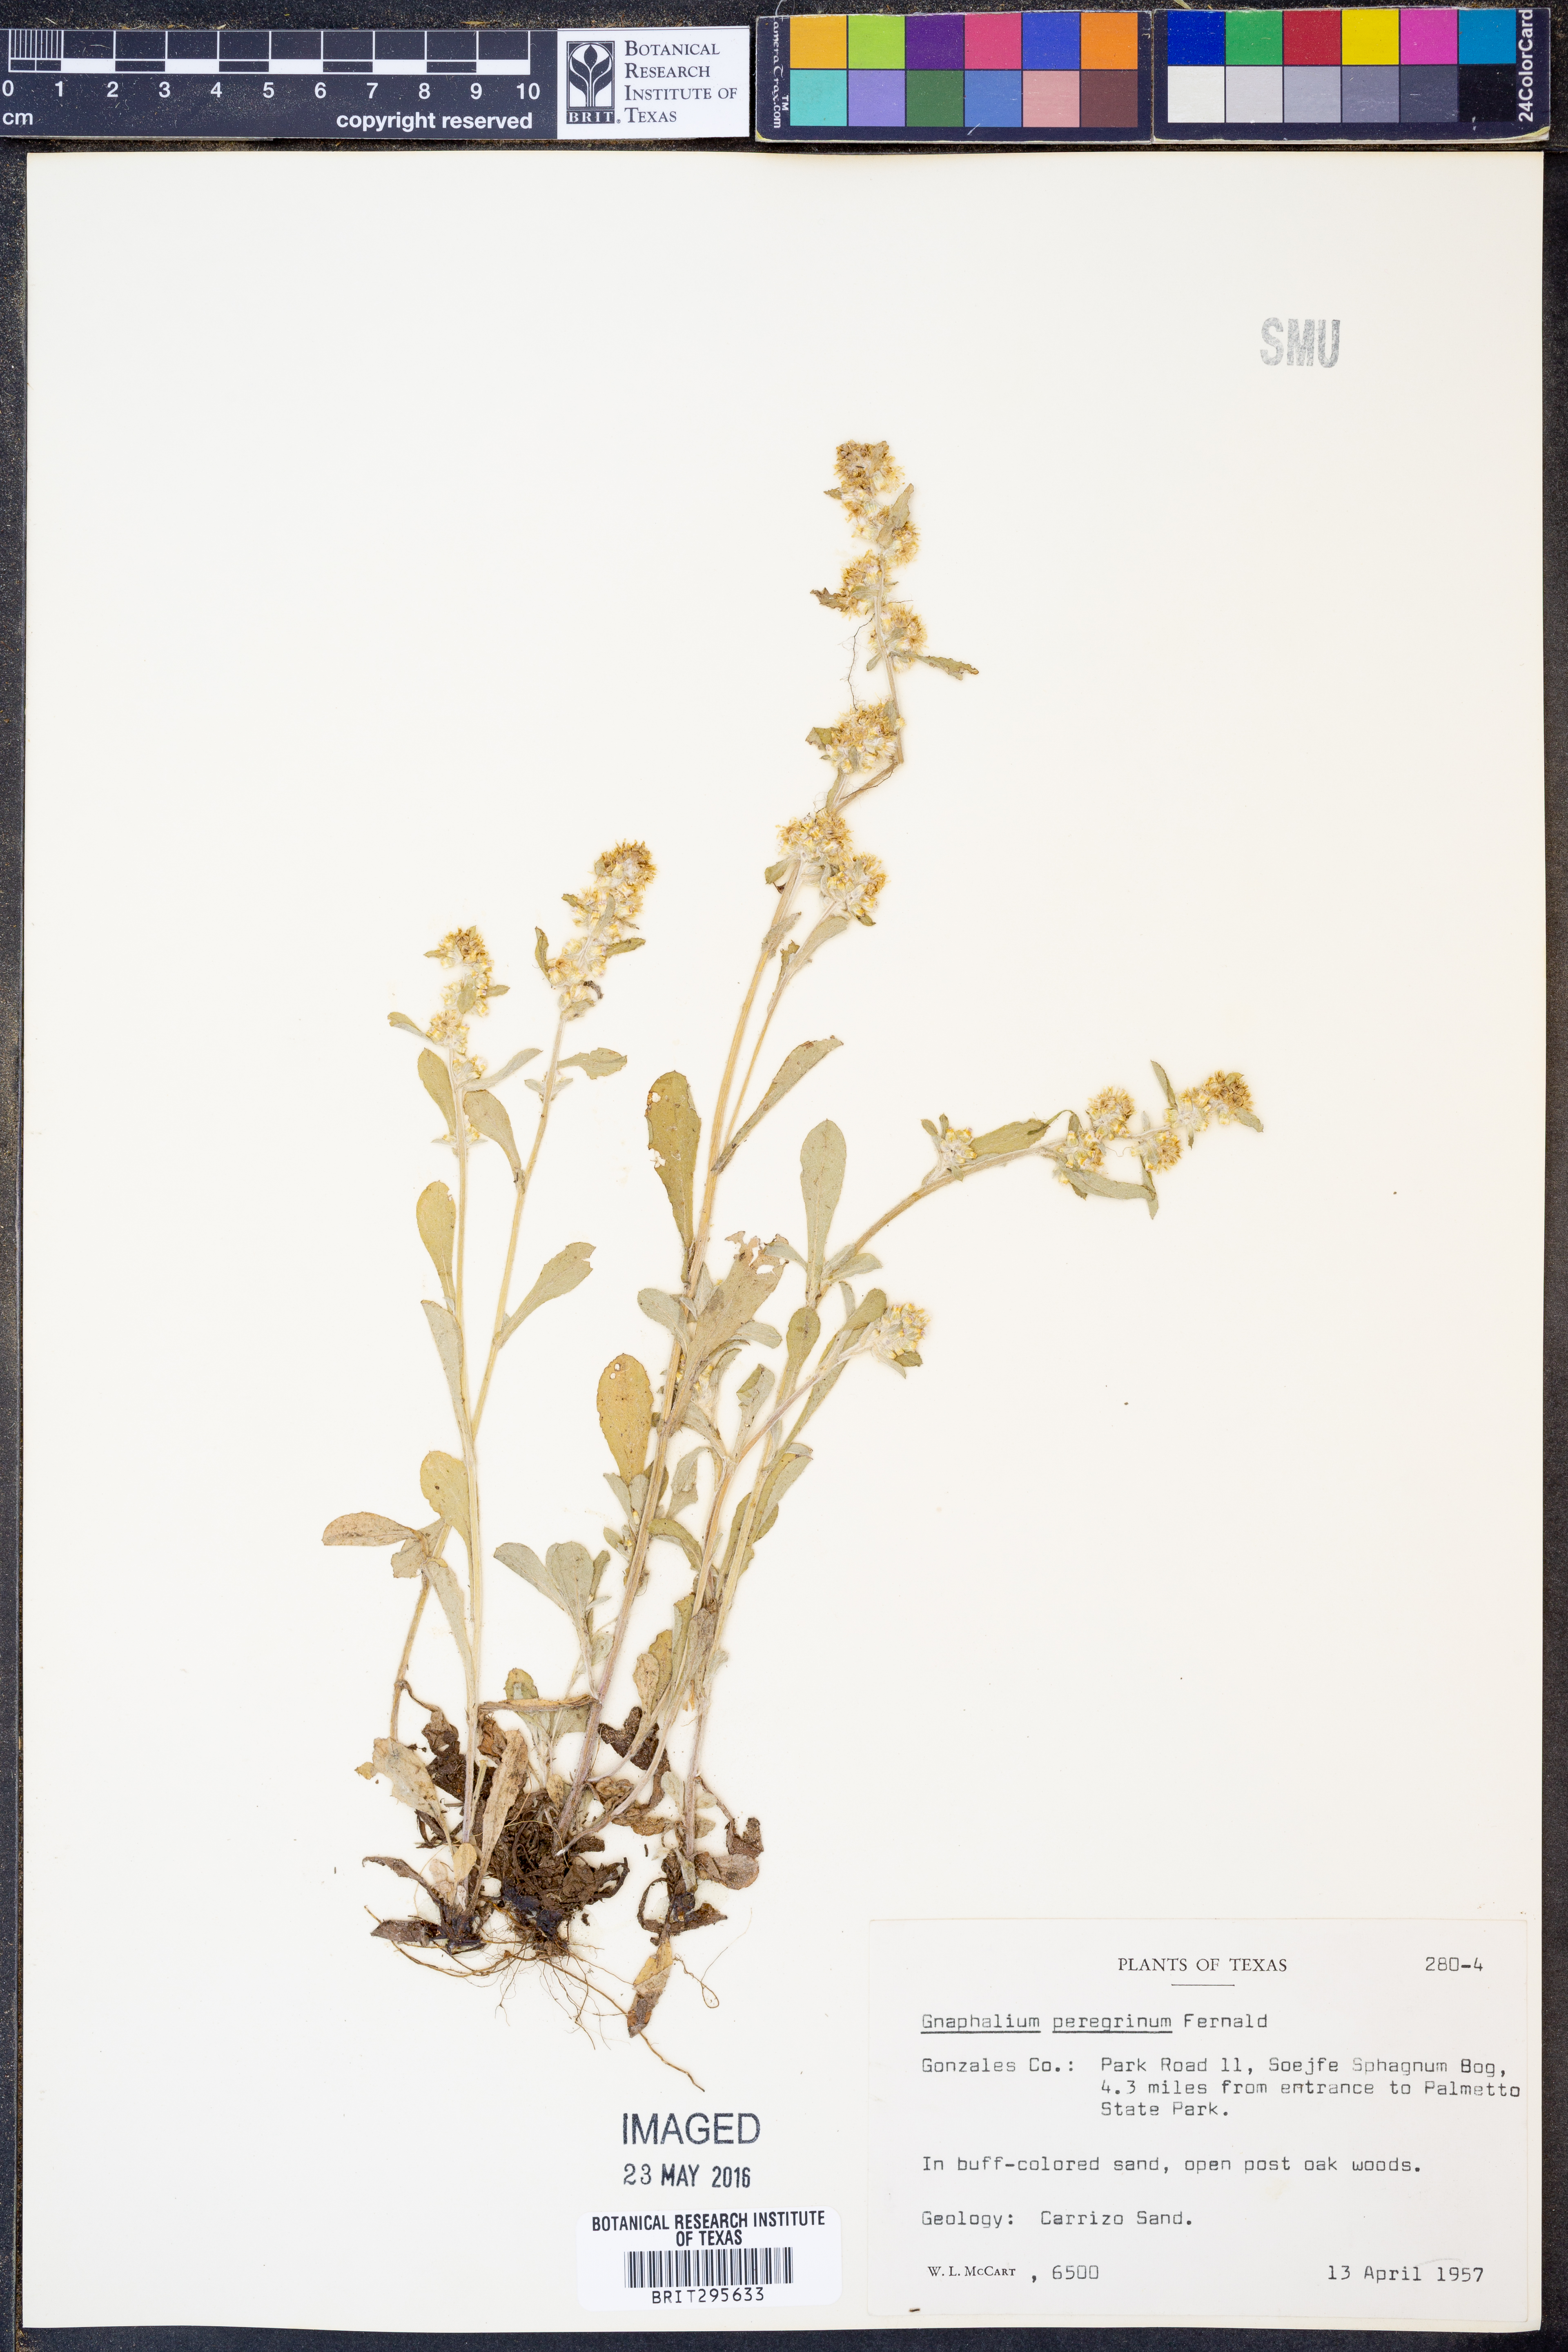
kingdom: Plantae
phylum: Tracheophyta
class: Magnoliopsida
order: Asterales
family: Asteraceae
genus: Gamochaeta
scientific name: Gamochaeta pensylvanica
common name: Pennsylvania everlasting
